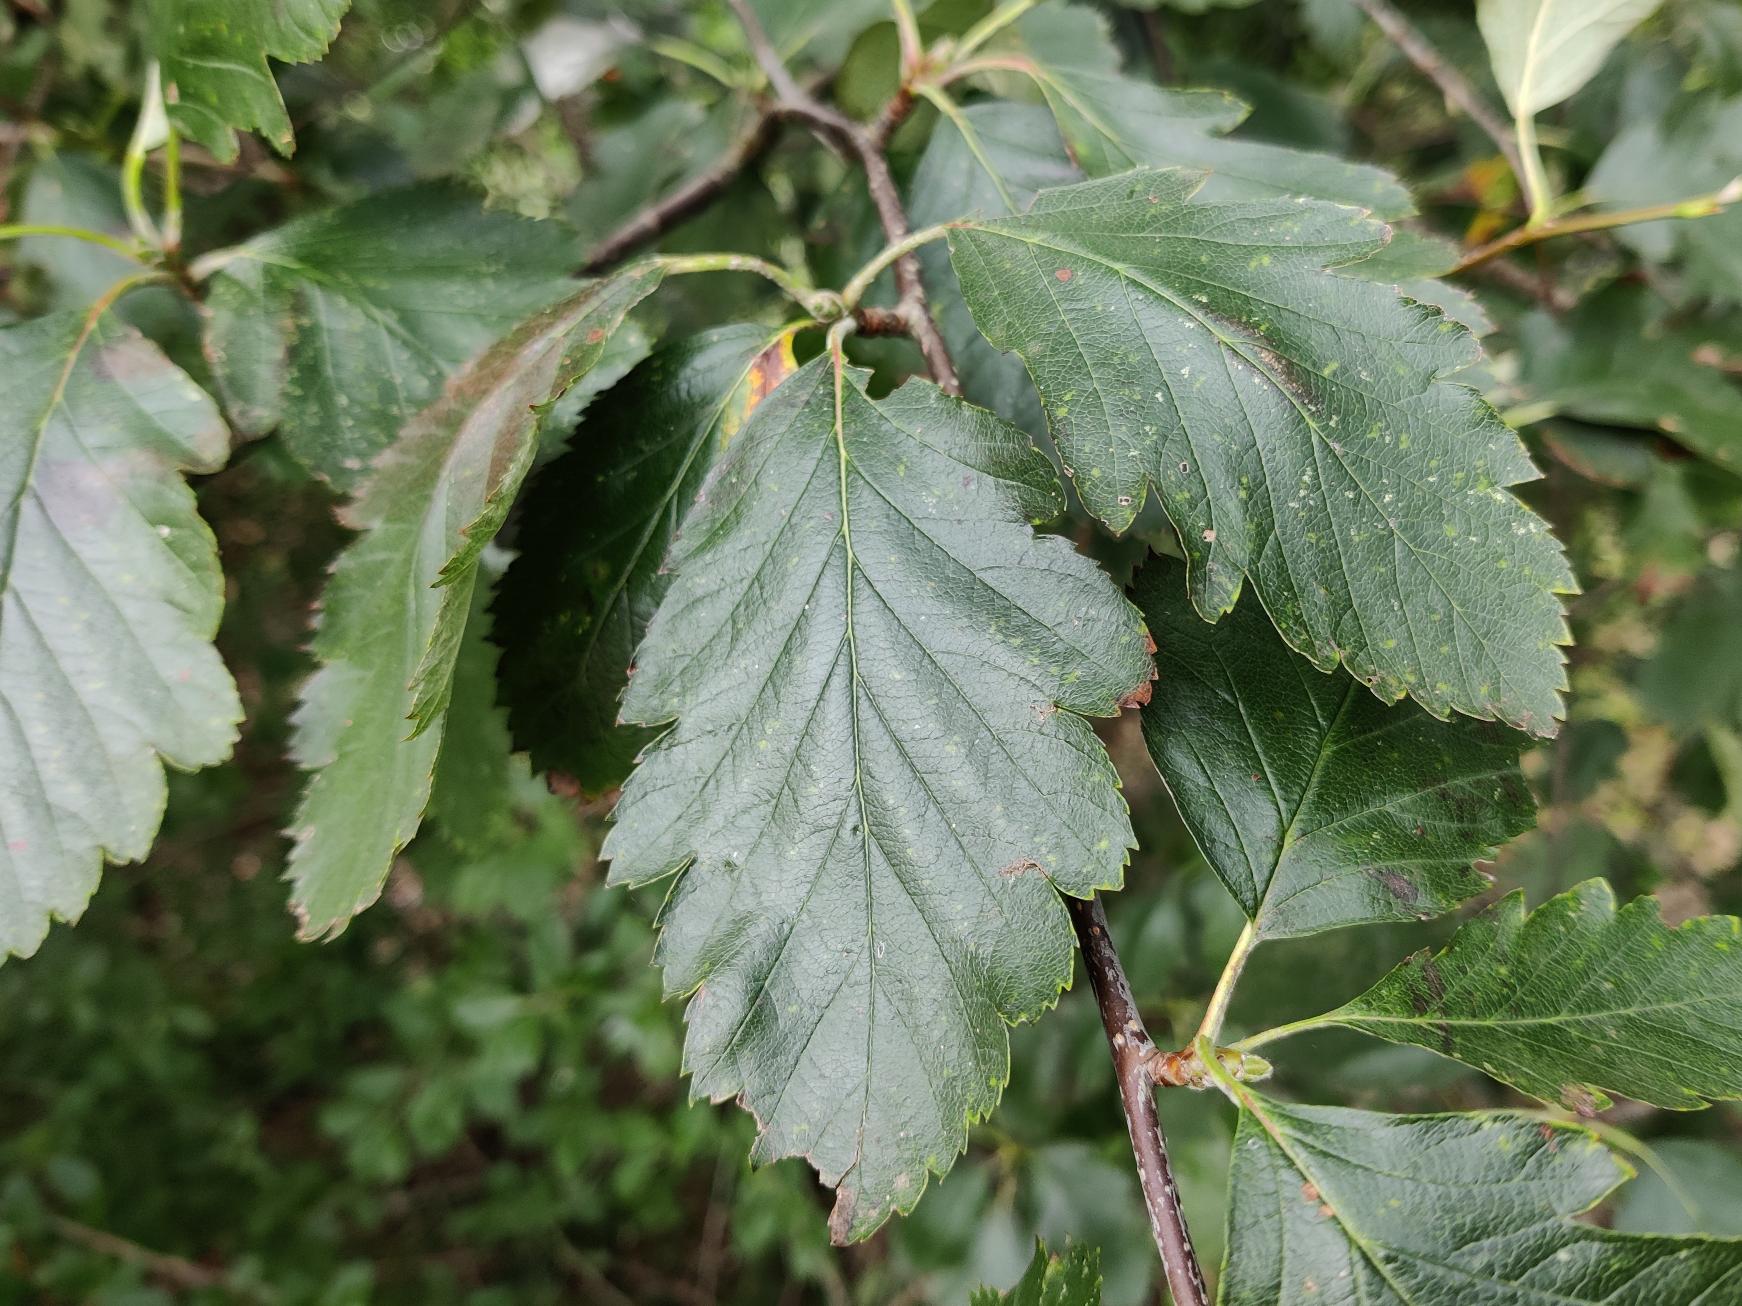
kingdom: Plantae
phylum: Tracheophyta
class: Magnoliopsida
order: Rosales
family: Rosaceae
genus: Scandosorbus
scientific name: Scandosorbus intermedia
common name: Selje-røn
